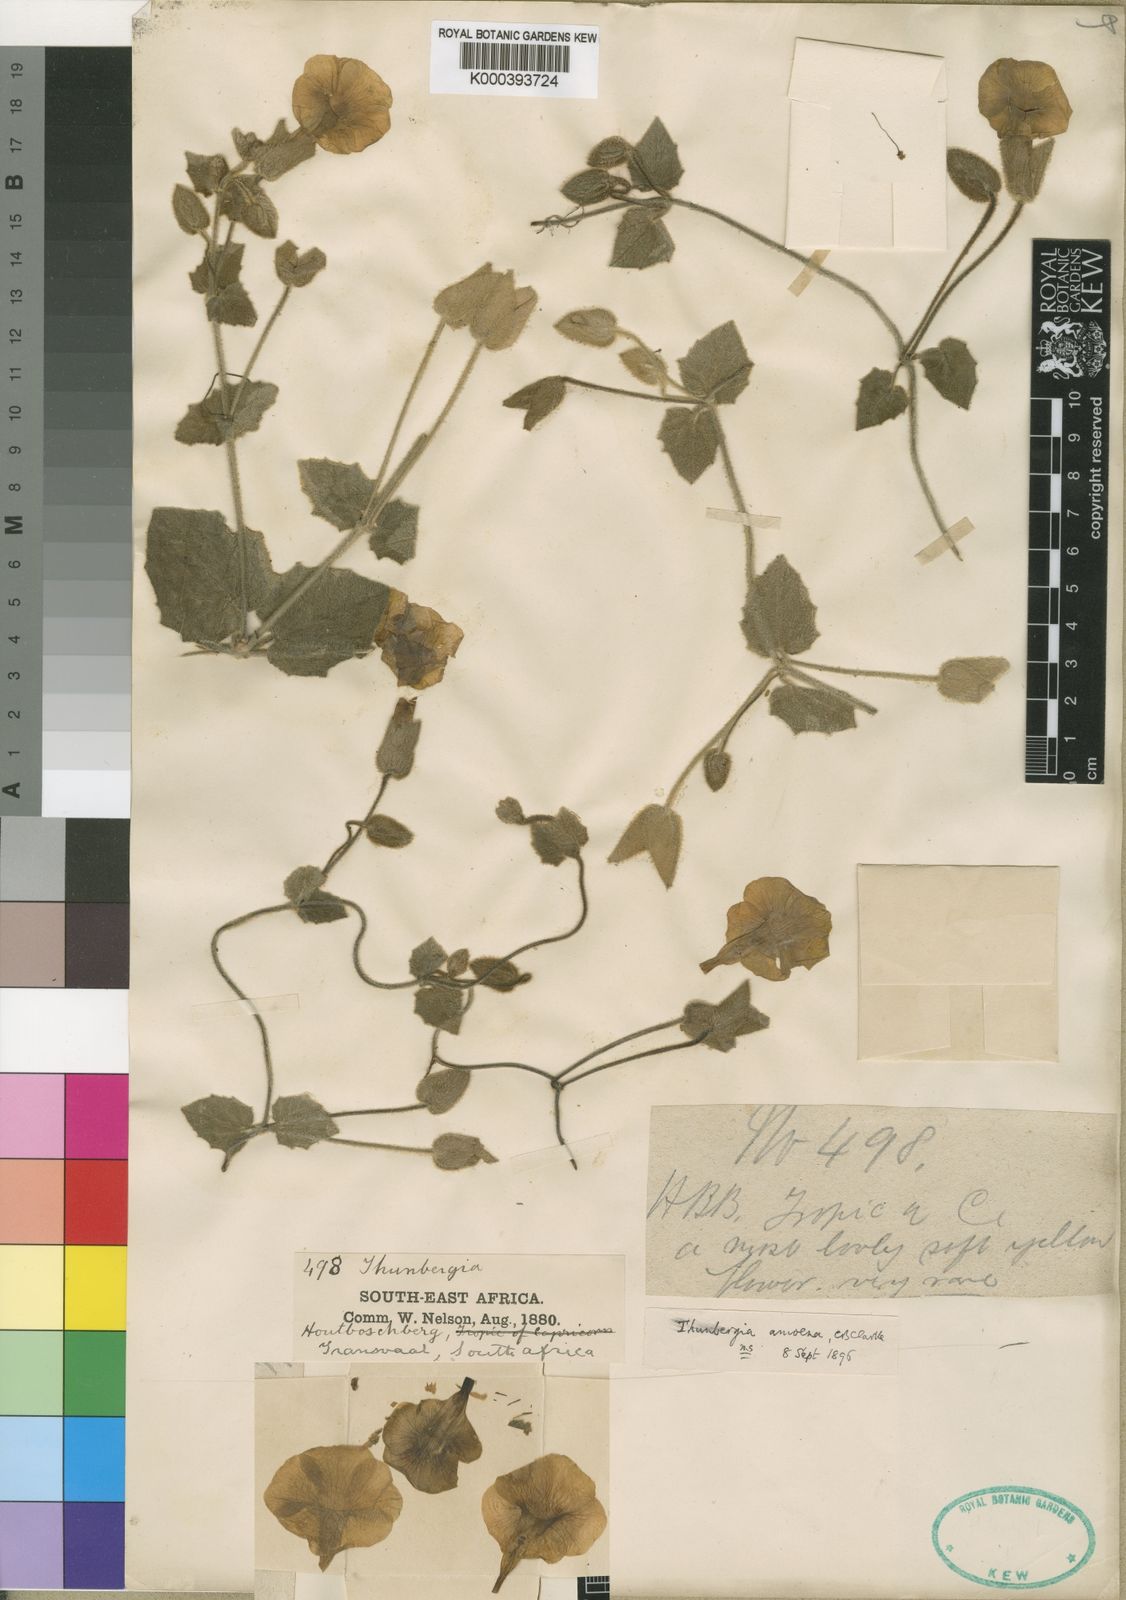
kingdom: Plantae
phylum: Tracheophyta
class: Magnoliopsida
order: Lamiales
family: Acanthaceae
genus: Thunbergia
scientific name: Thunbergia amoena
